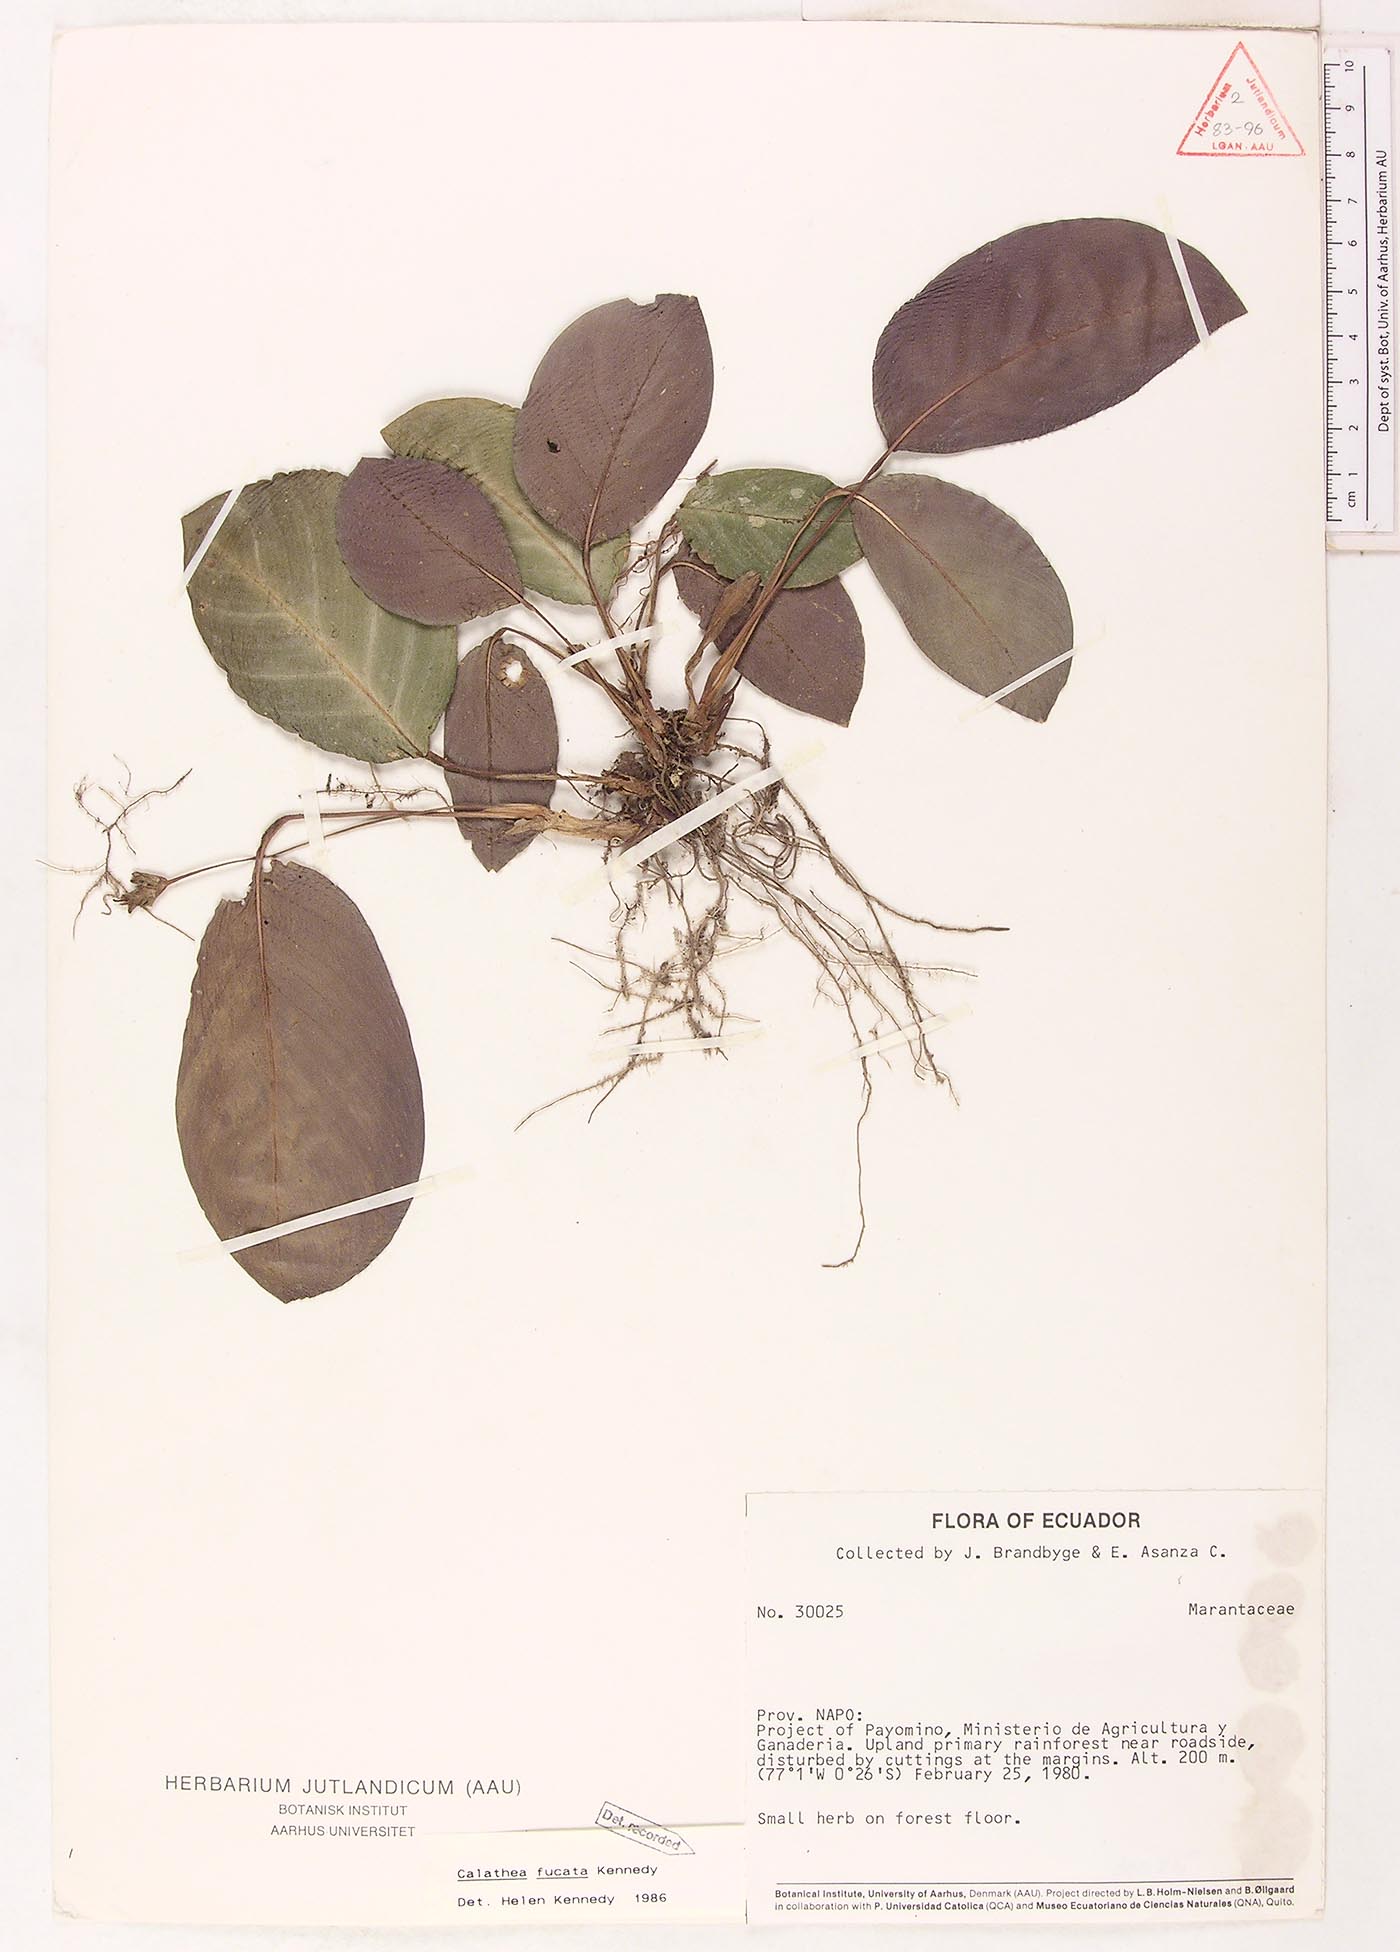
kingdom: Plantae
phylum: Tracheophyta
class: Liliopsida
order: Zingiberales
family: Marantaceae
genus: Goeppertia
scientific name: Goeppertia fucata
